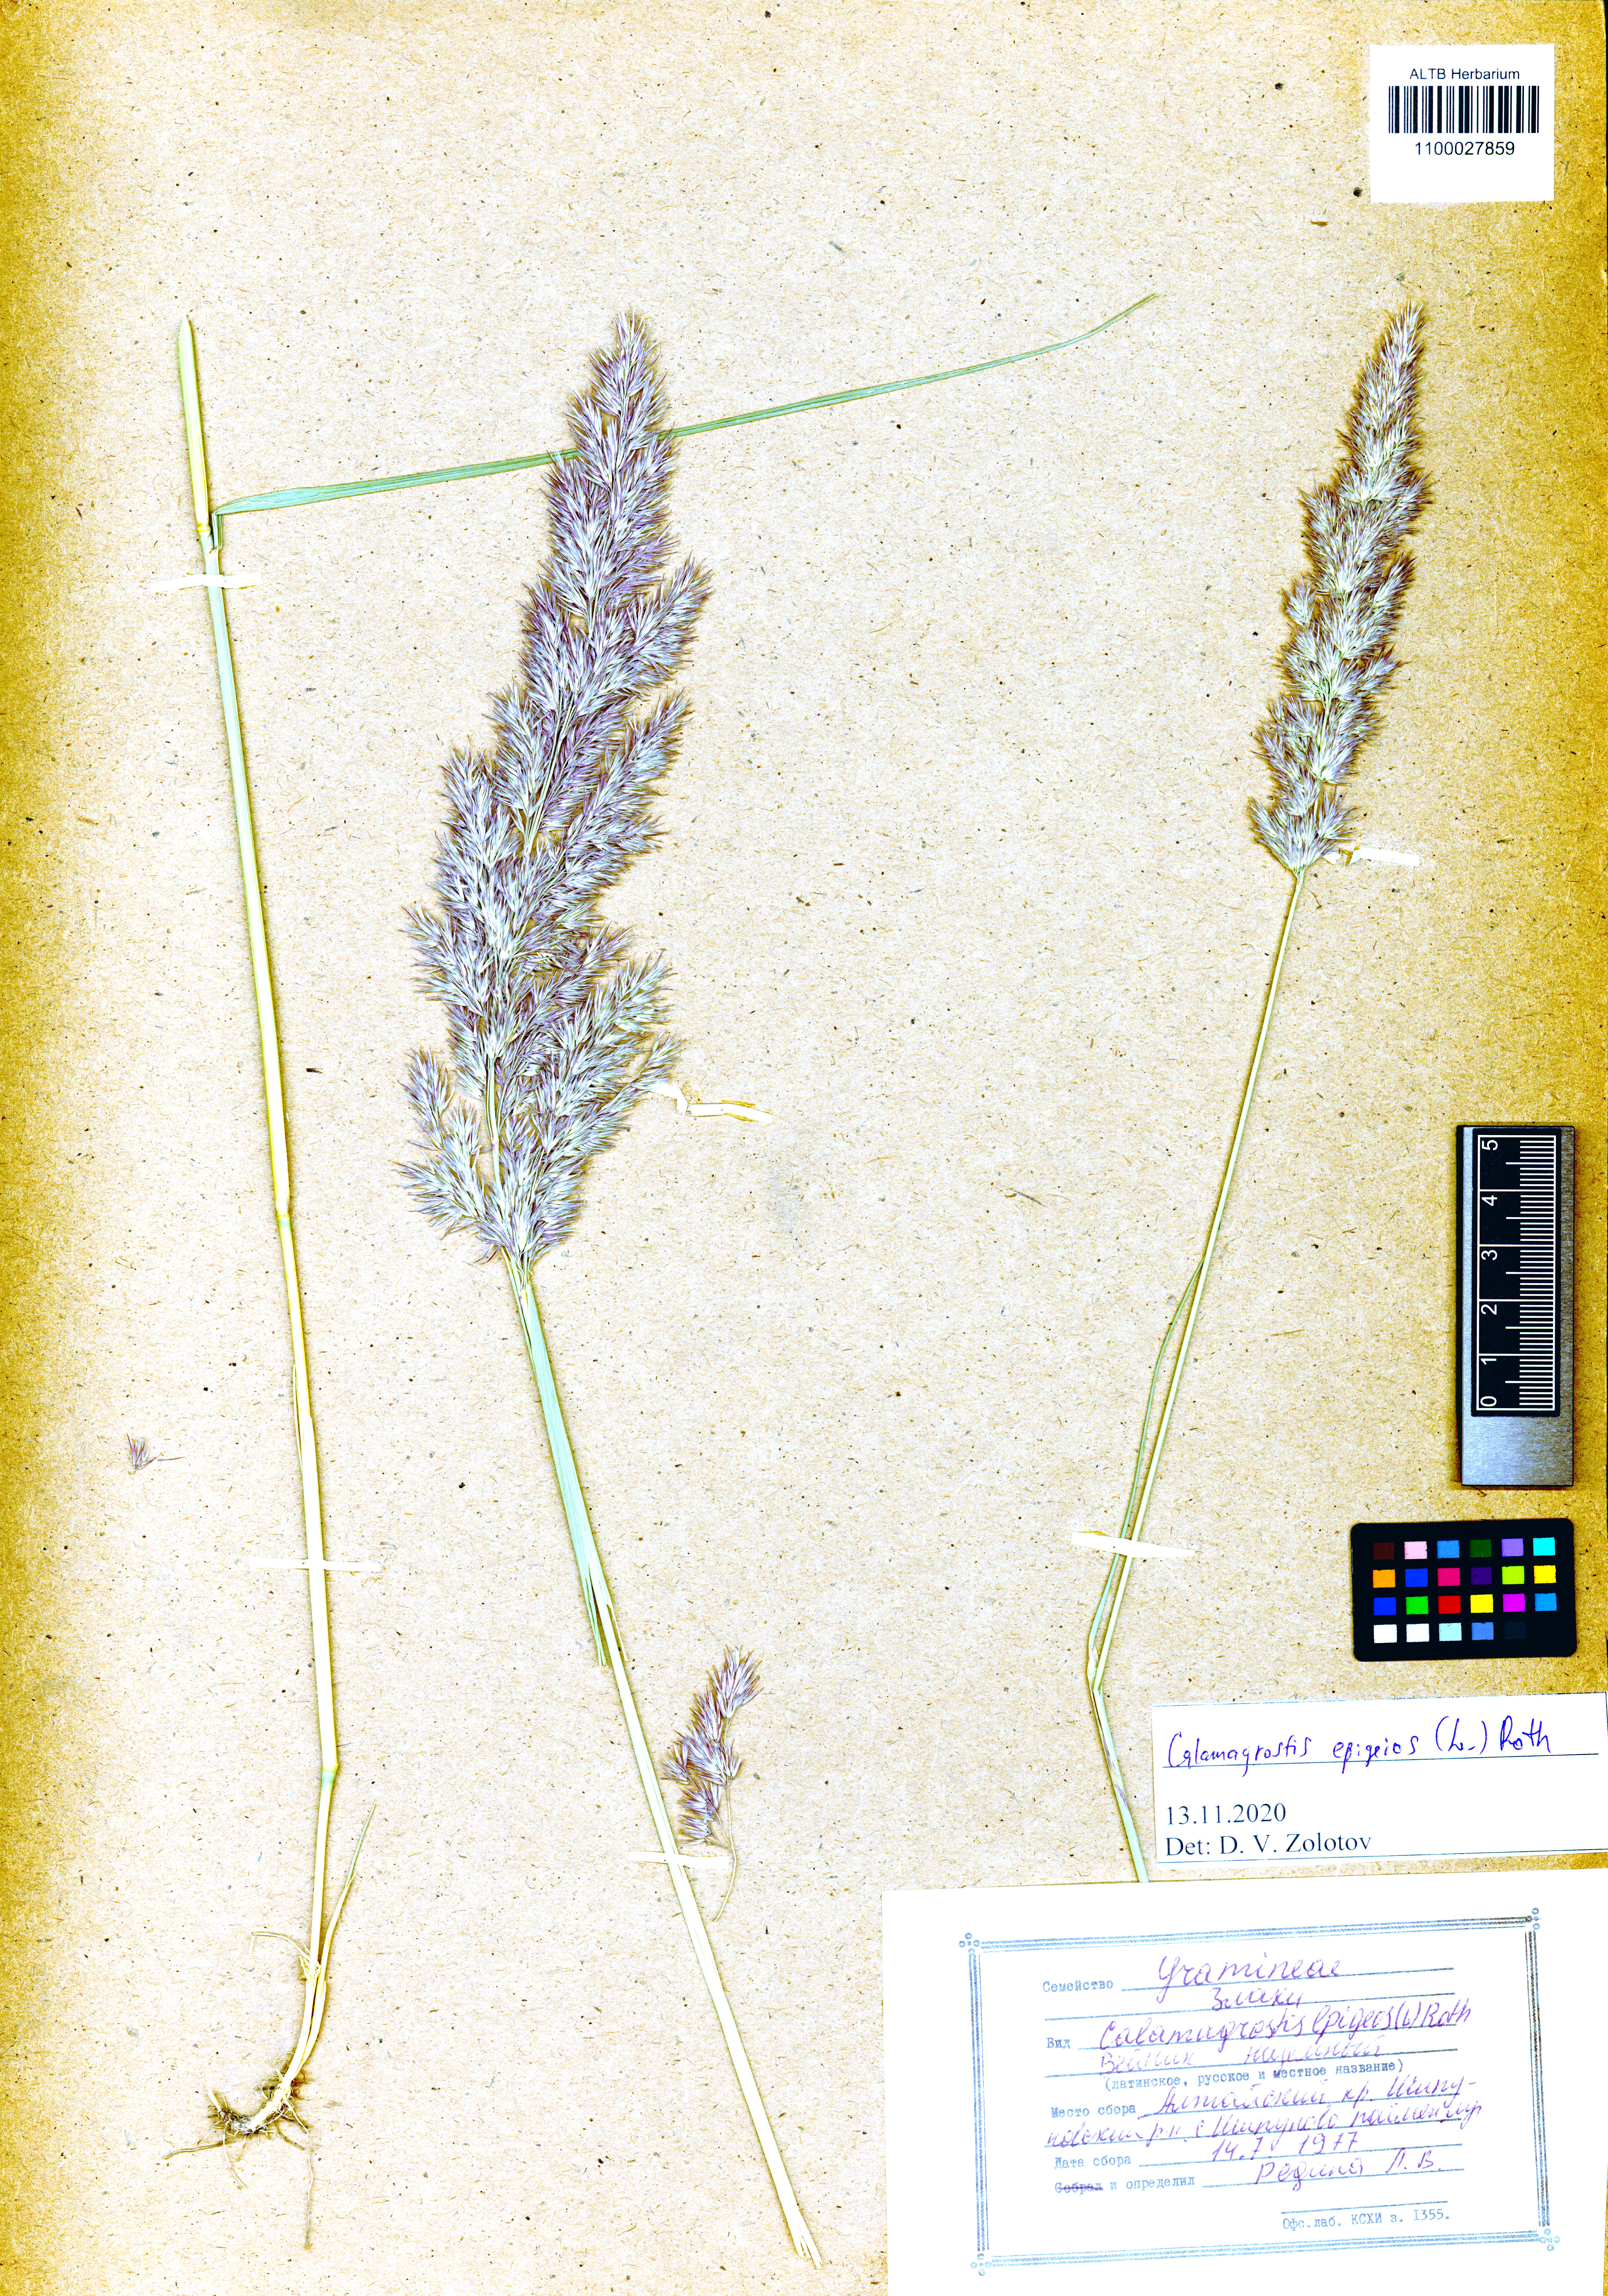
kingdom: Plantae
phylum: Tracheophyta
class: Liliopsida
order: Poales
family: Poaceae
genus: Calamagrostis
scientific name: Calamagrostis epigejos
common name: Wood small-reed
